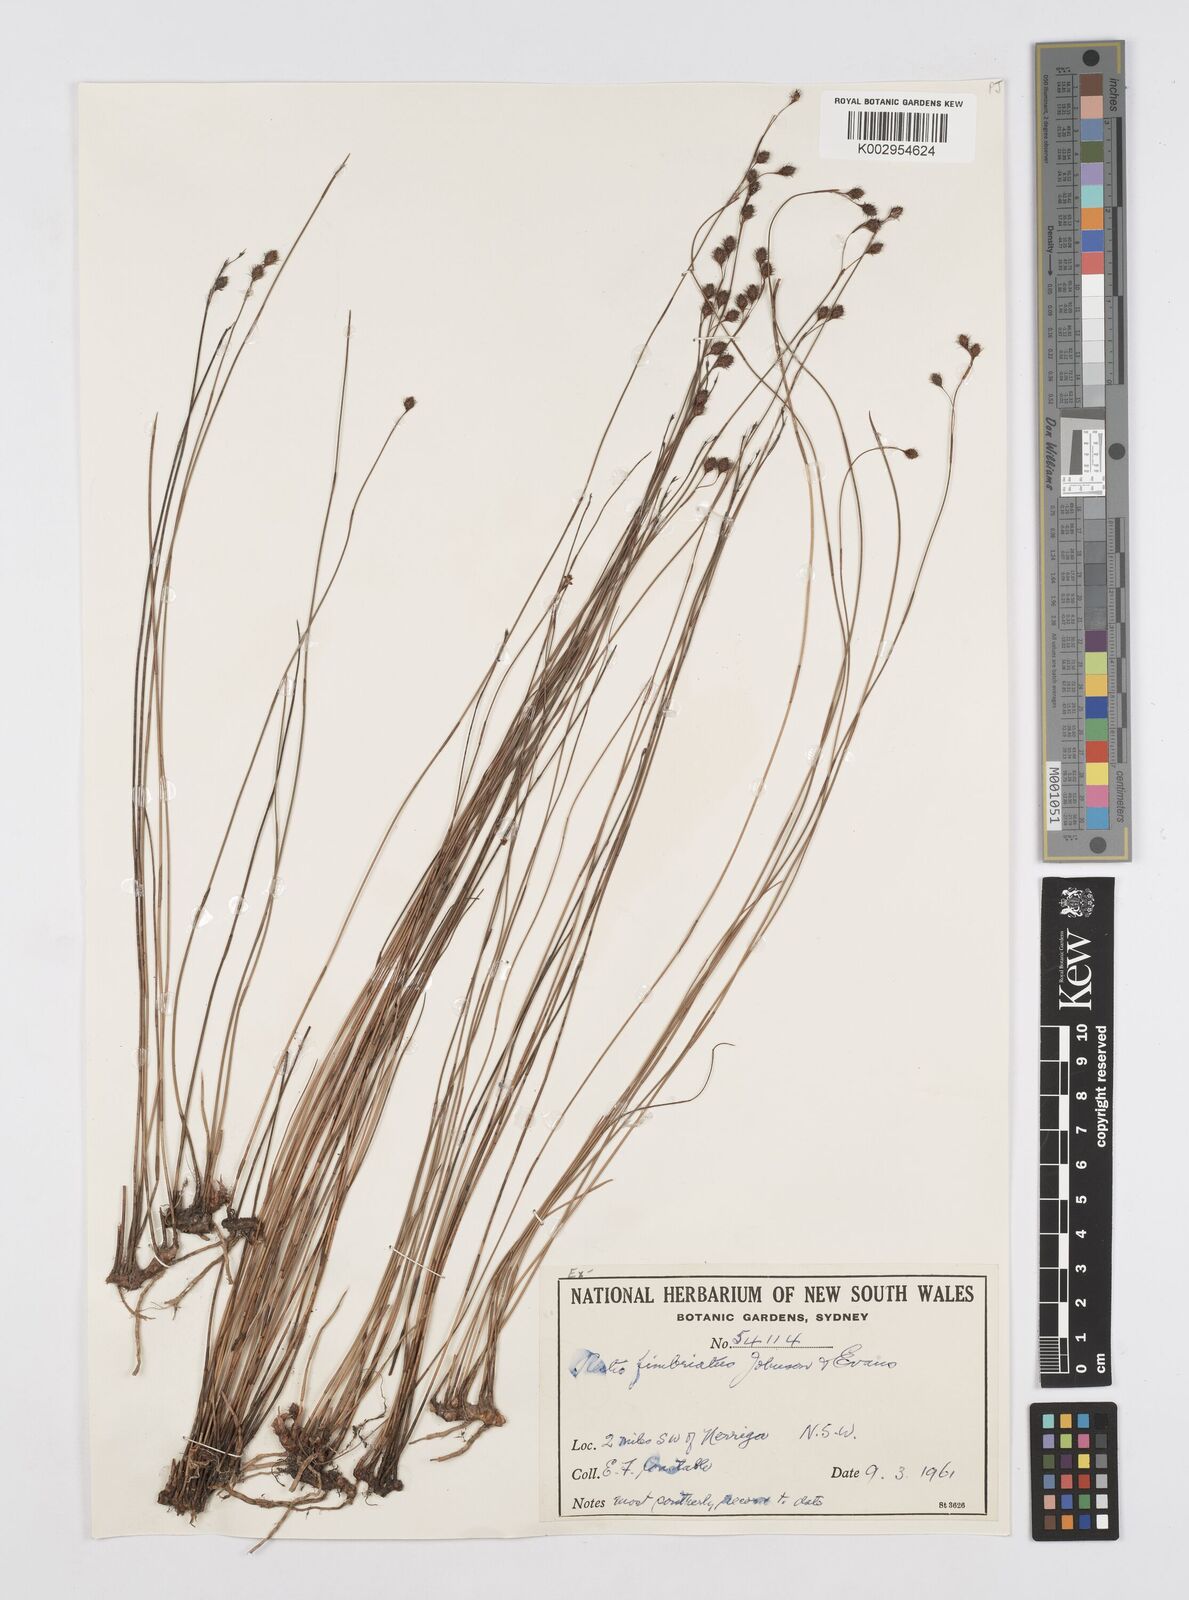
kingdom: Plantae
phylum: Tracheophyta
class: Liliopsida
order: Poales
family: Restionaceae
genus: Baloskion
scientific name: Baloskion fimbriatum
